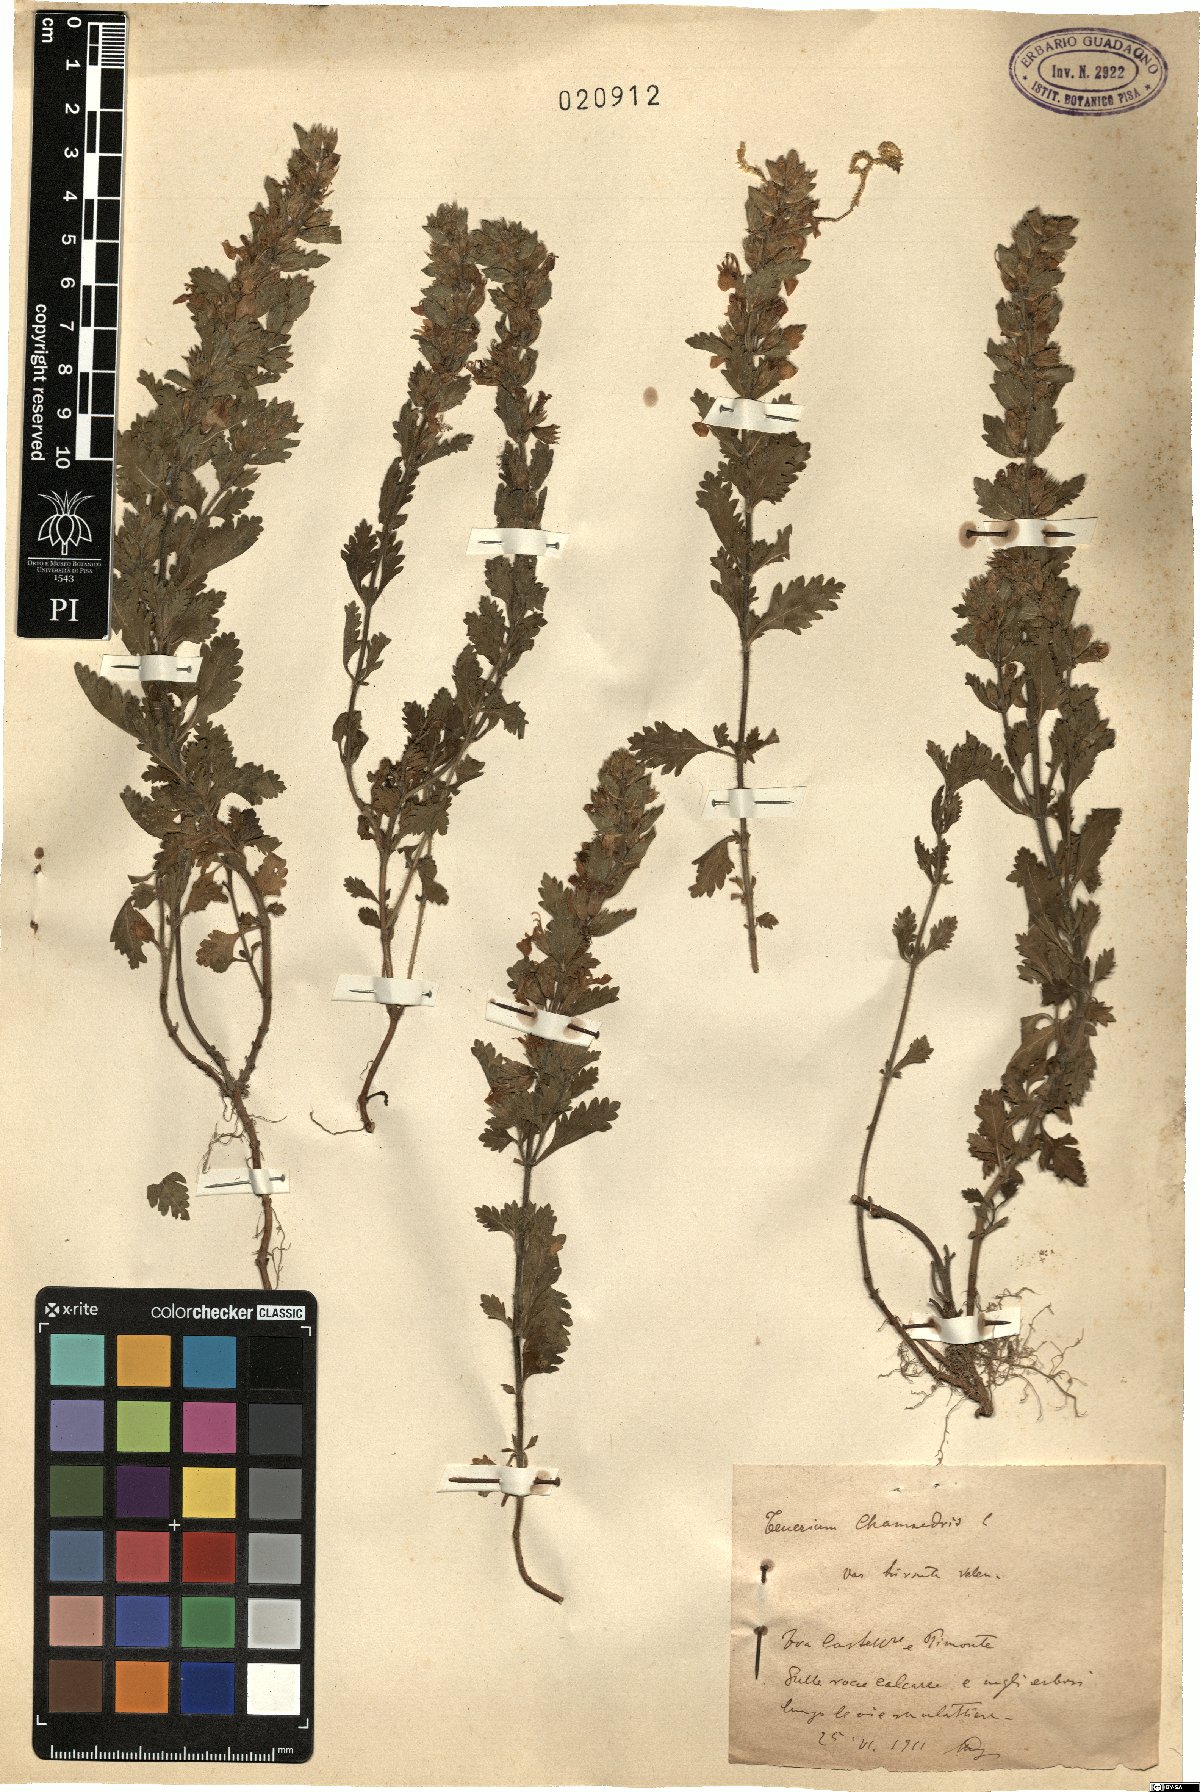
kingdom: Plantae
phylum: Tracheophyta
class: Magnoliopsida
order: Lamiales
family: Lamiaceae
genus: Teucrium
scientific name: Teucrium chamaedrys
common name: Wall germander
